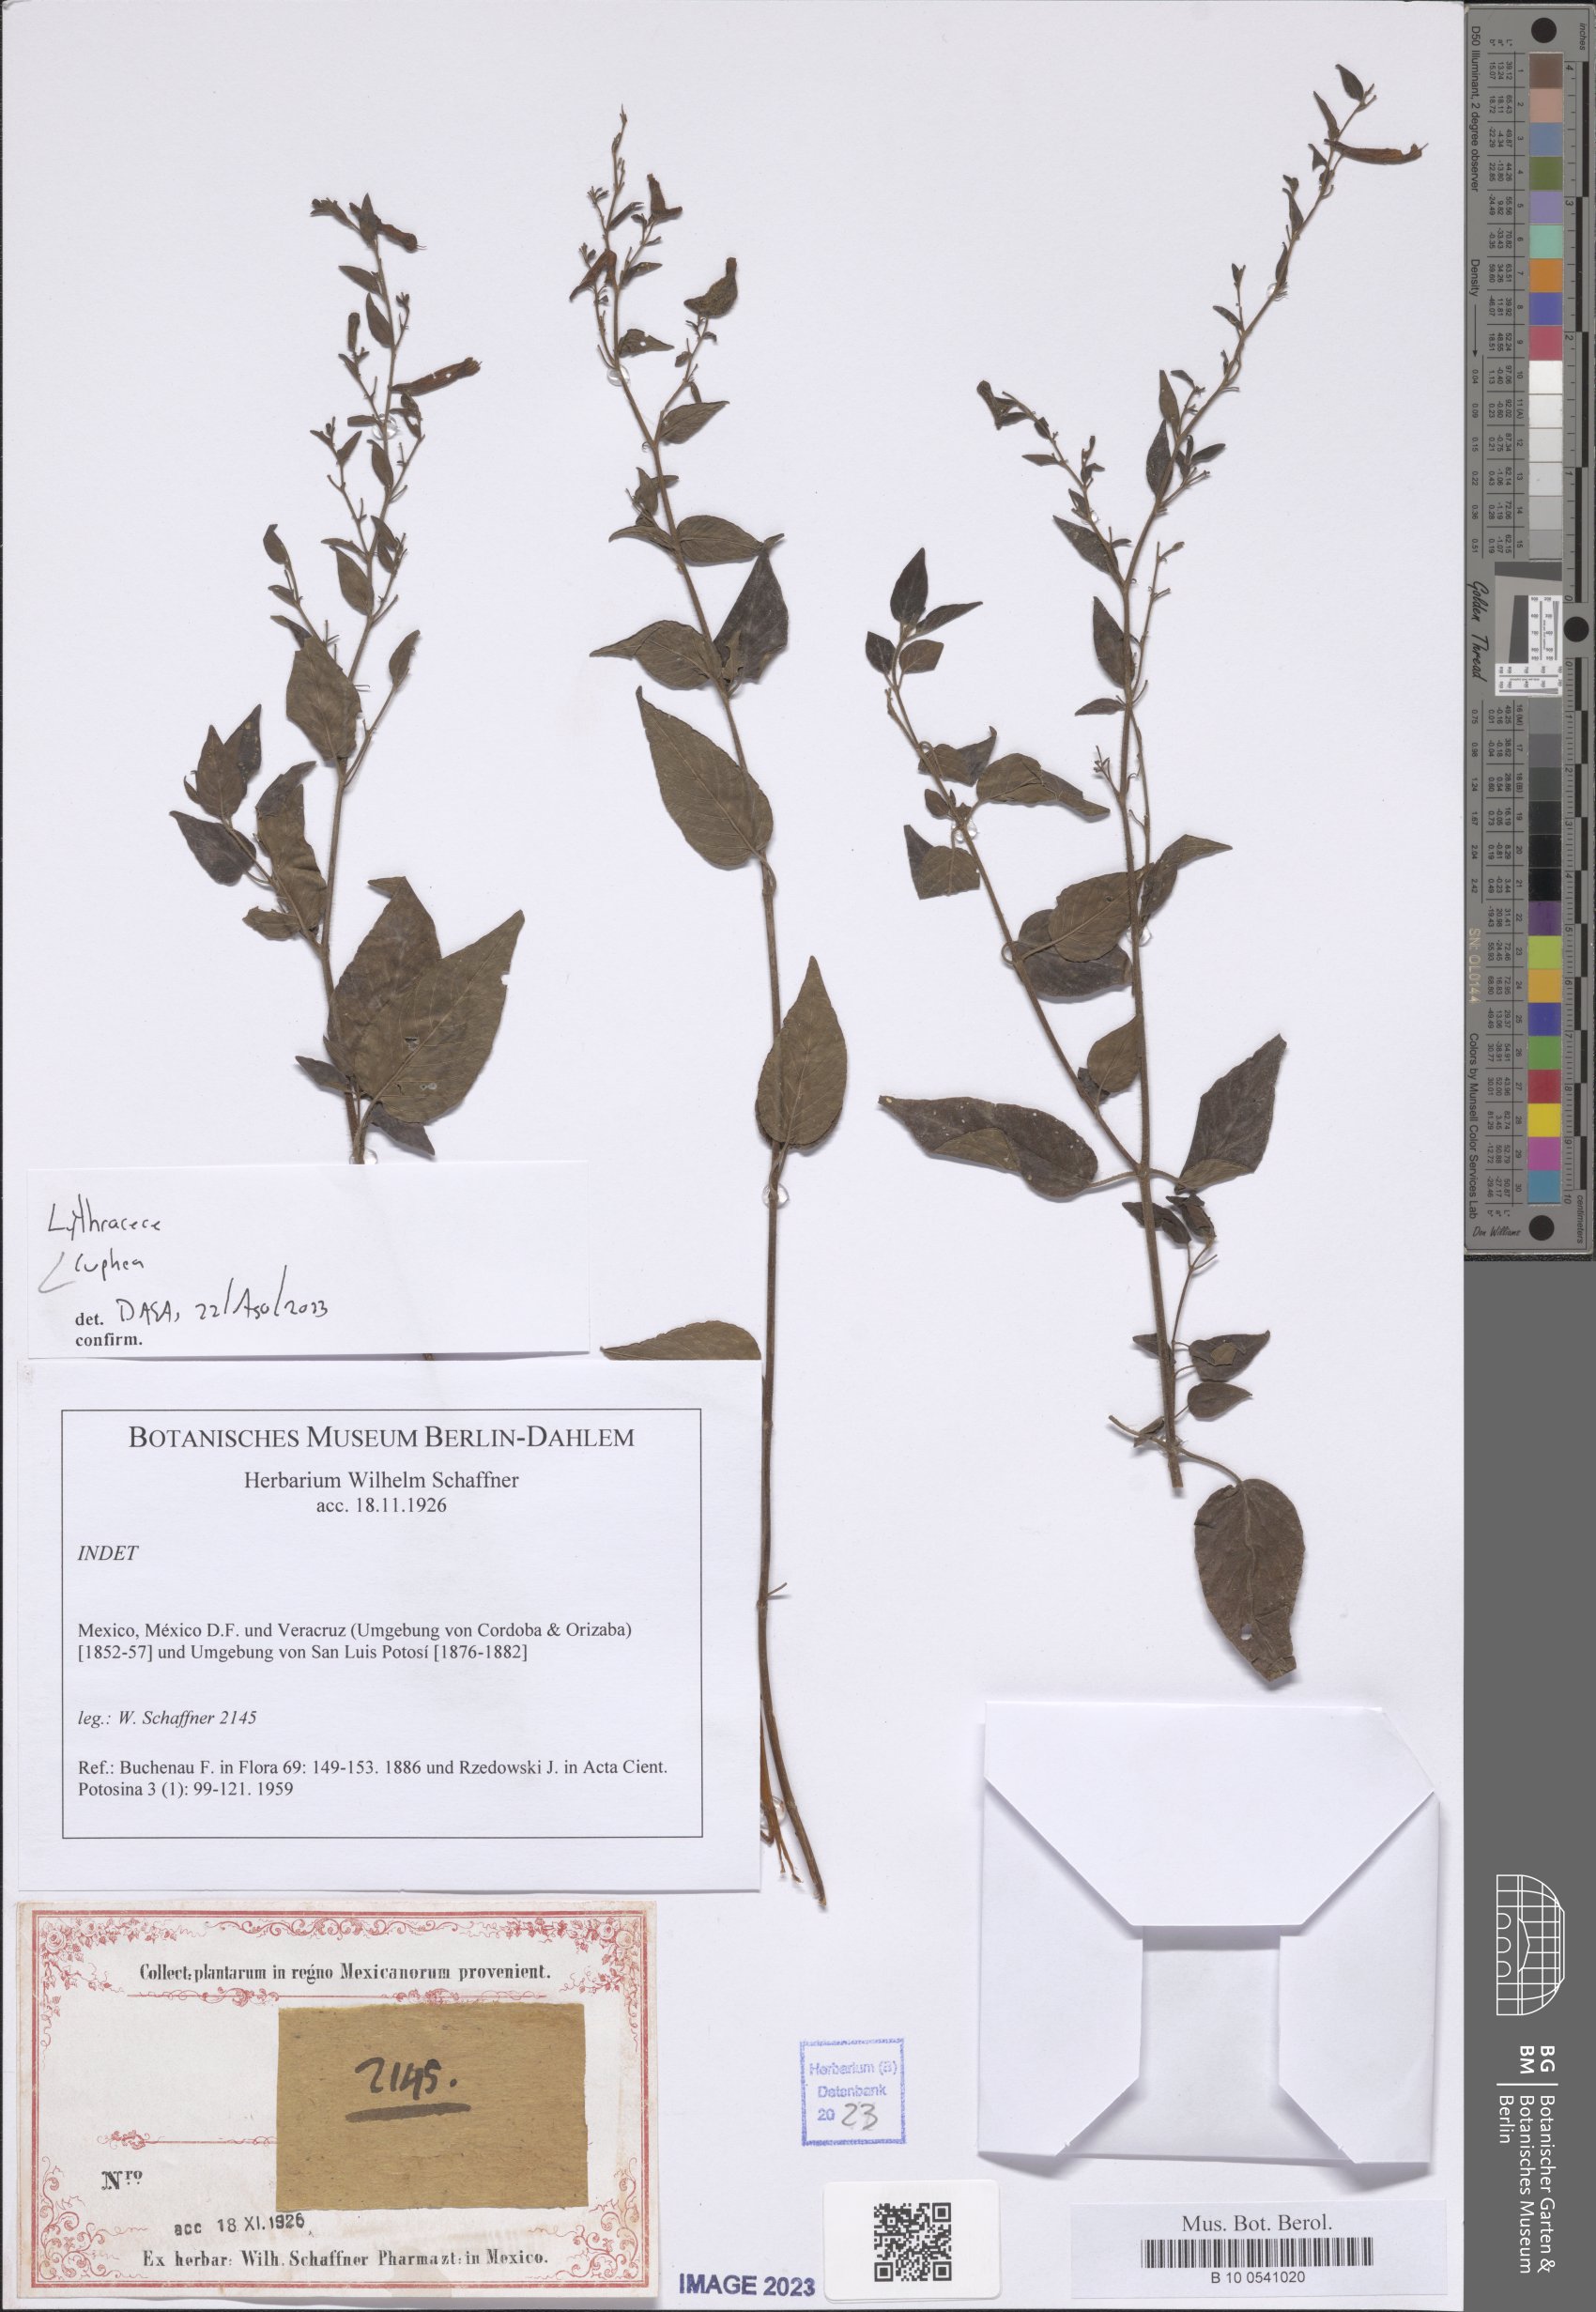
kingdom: Plantae
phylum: Tracheophyta
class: Magnoliopsida
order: Myrtales
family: Lythraceae
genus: Cuphea
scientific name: Cuphea
